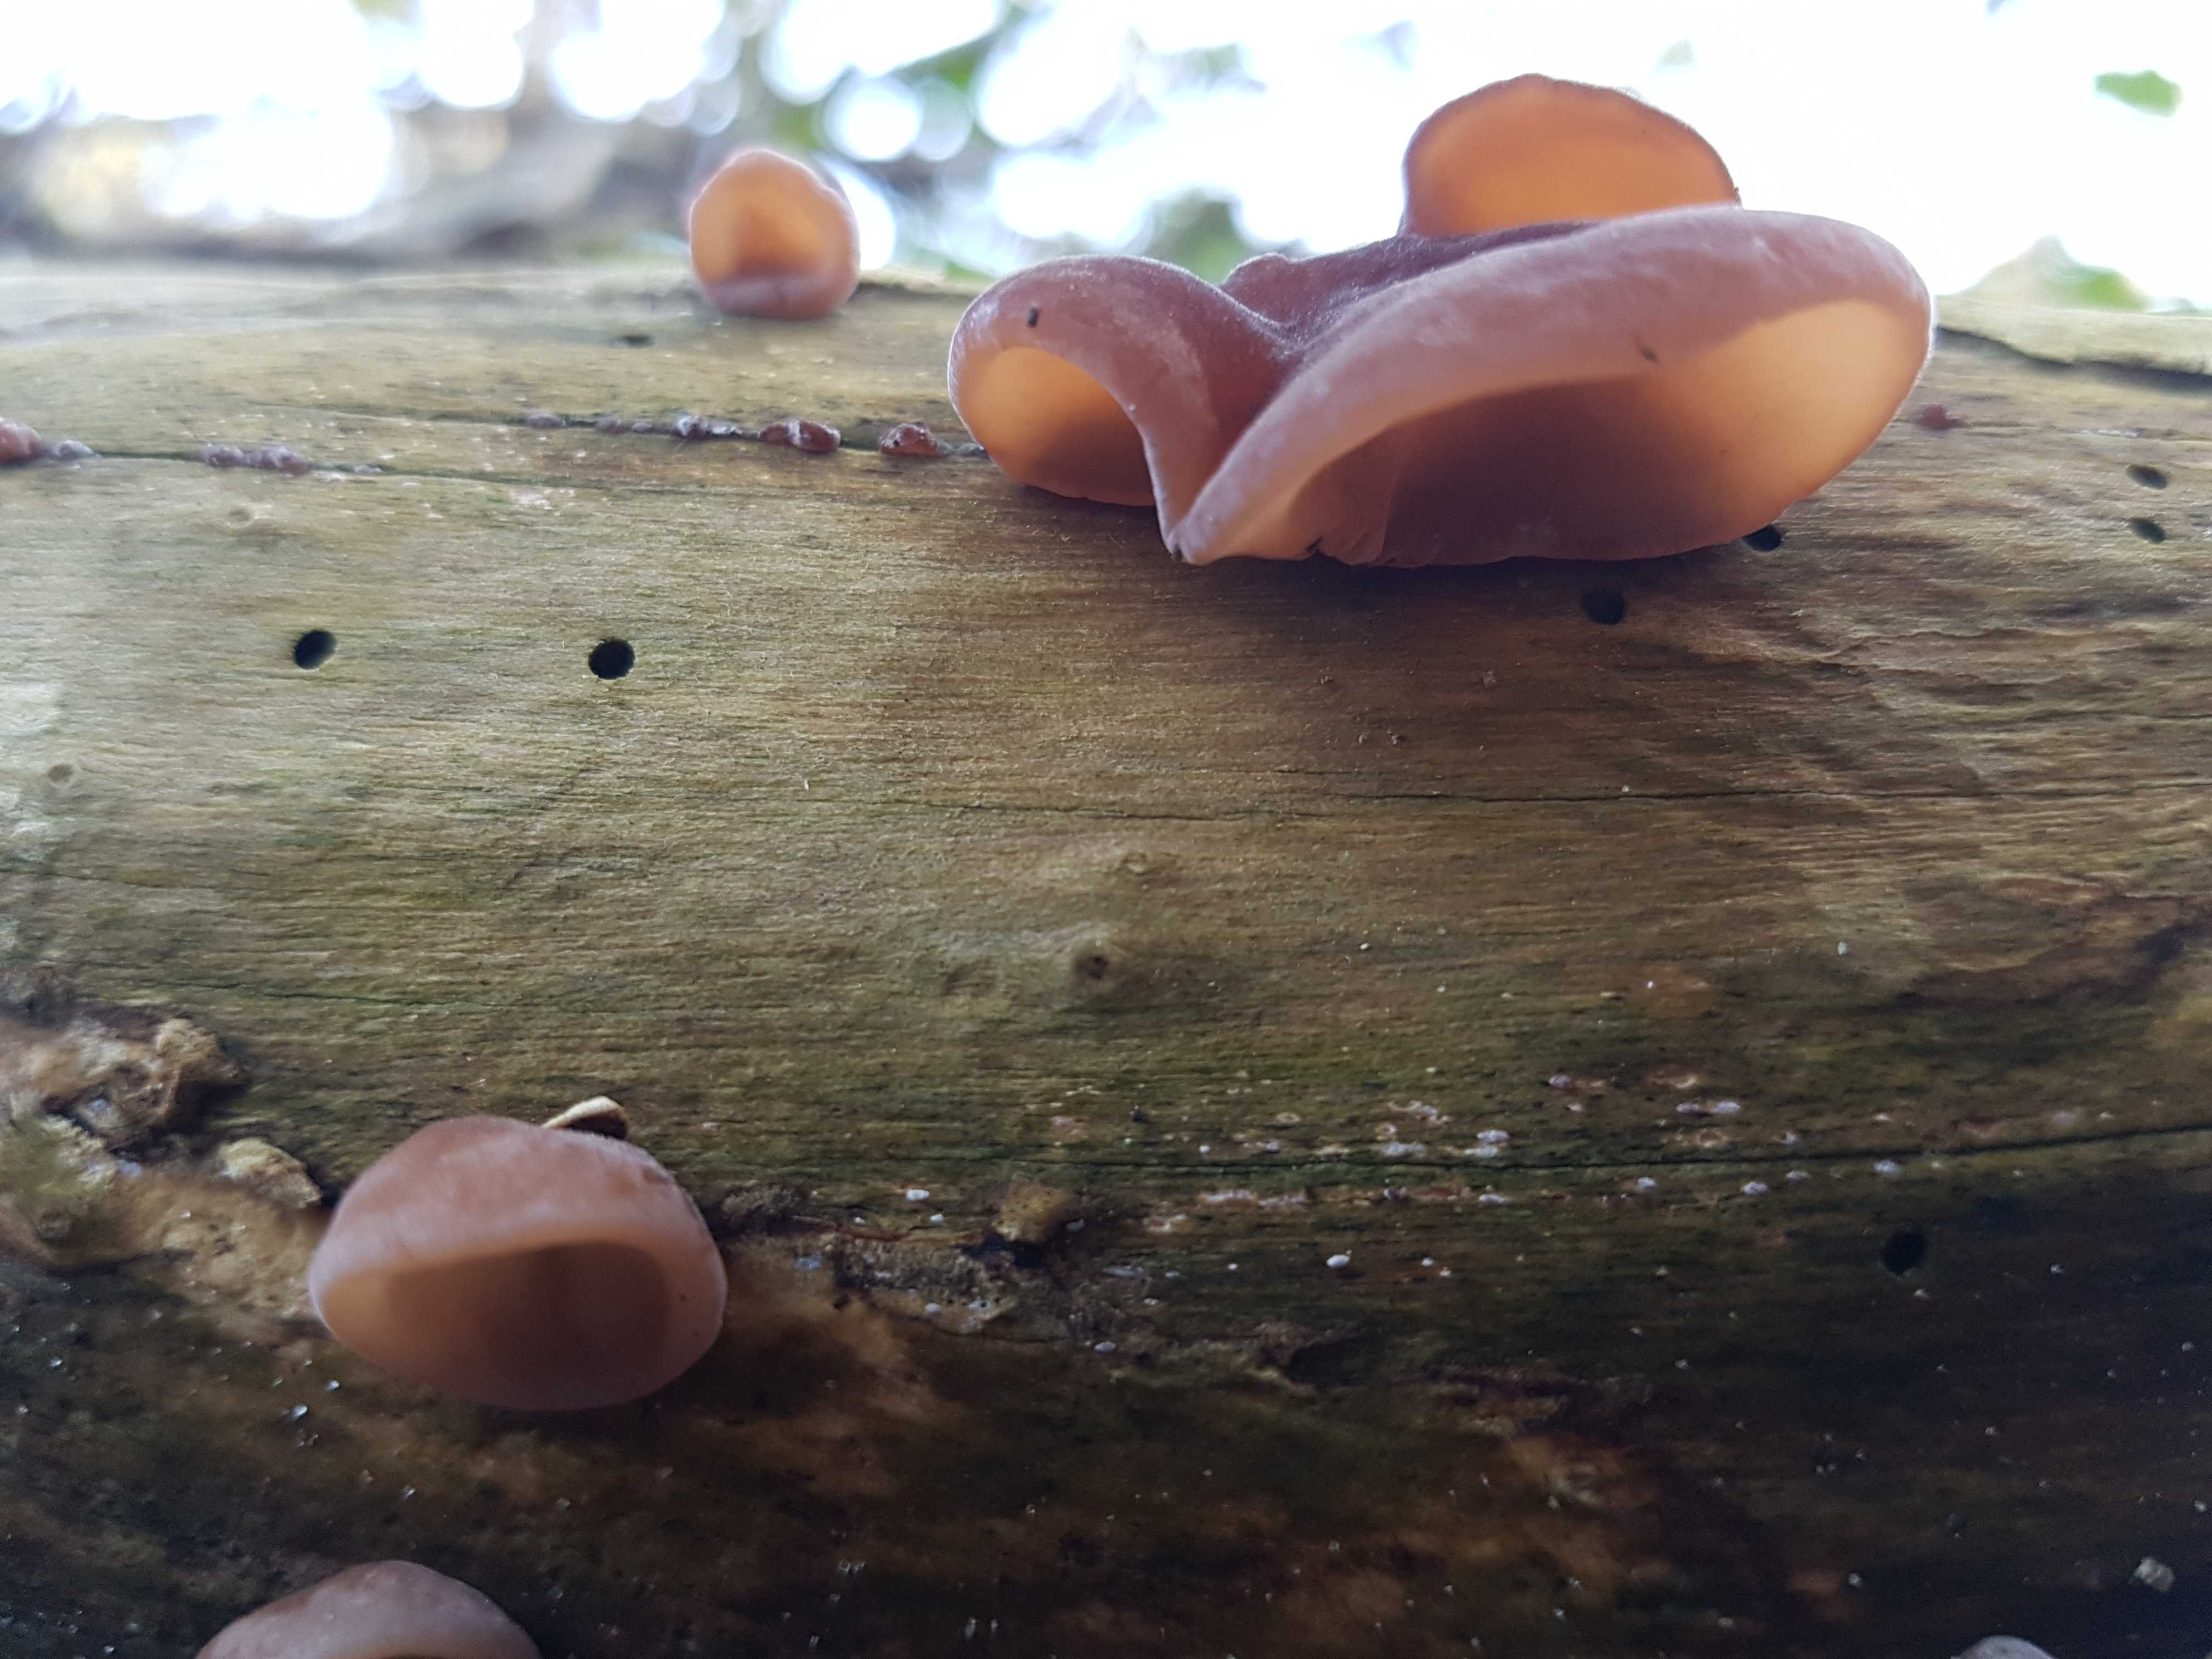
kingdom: Fungi
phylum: Basidiomycota
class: Agaricomycetes
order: Auriculariales
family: Auriculariaceae
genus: Auricularia
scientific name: Auricularia auricula-judae
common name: almindelig judasøre
